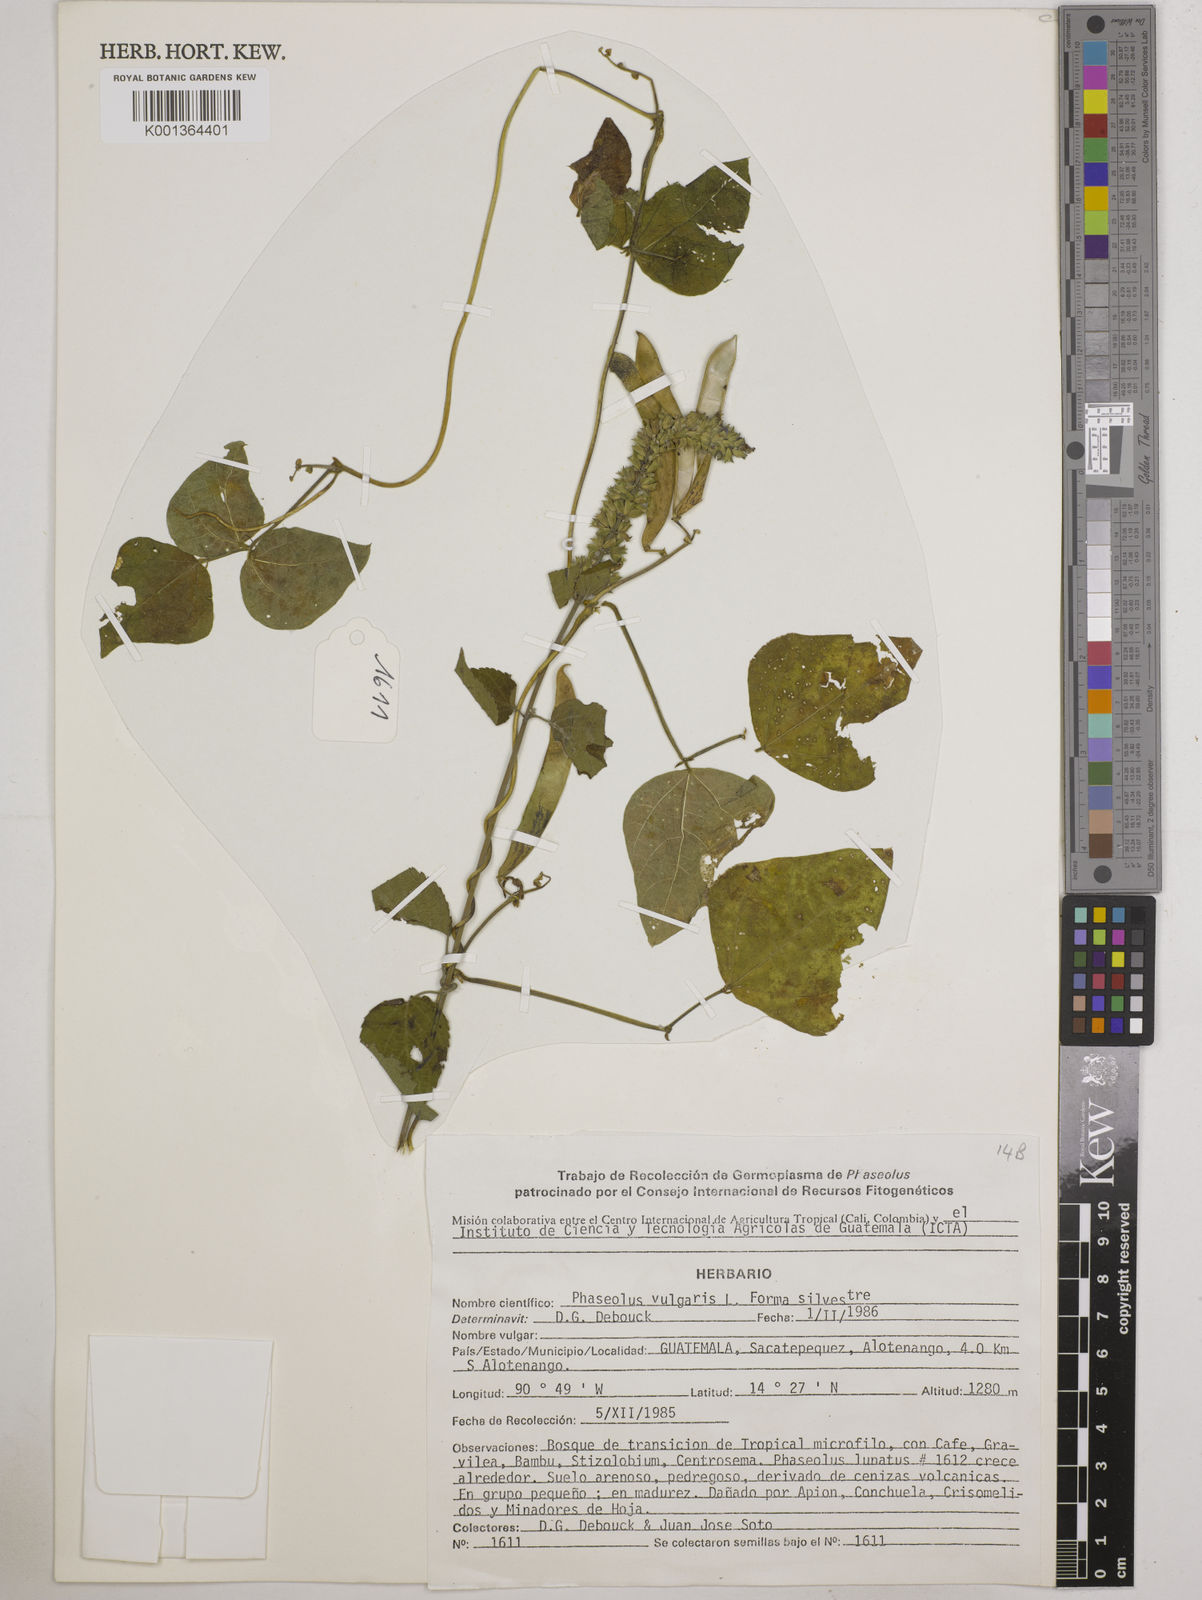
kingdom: Plantae
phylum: Tracheophyta
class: Magnoliopsida
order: Fabales
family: Fabaceae
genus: Phaseolus
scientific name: Phaseolus vulgaris
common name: Bean
